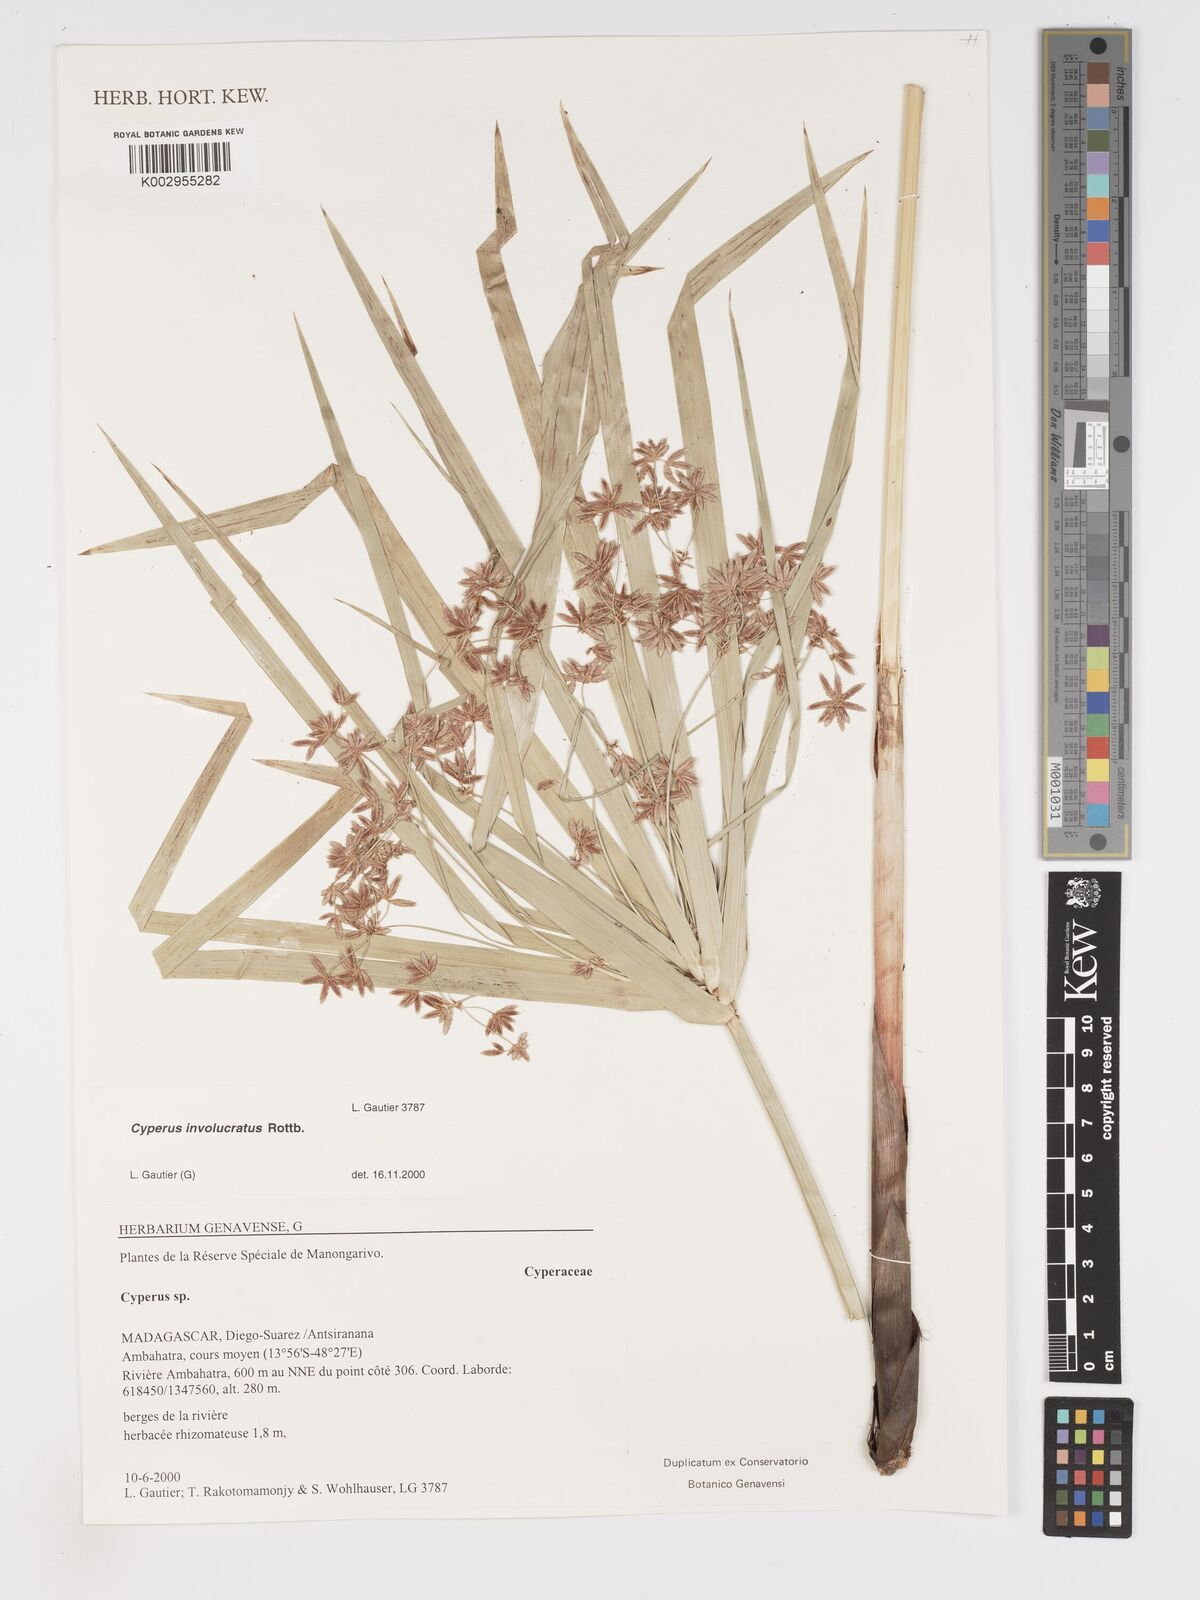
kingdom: Plantae
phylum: Tracheophyta
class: Liliopsida
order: Poales
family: Cyperaceae
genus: Cyperus
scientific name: Cyperus imbricatus
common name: Shingle flatsedge
